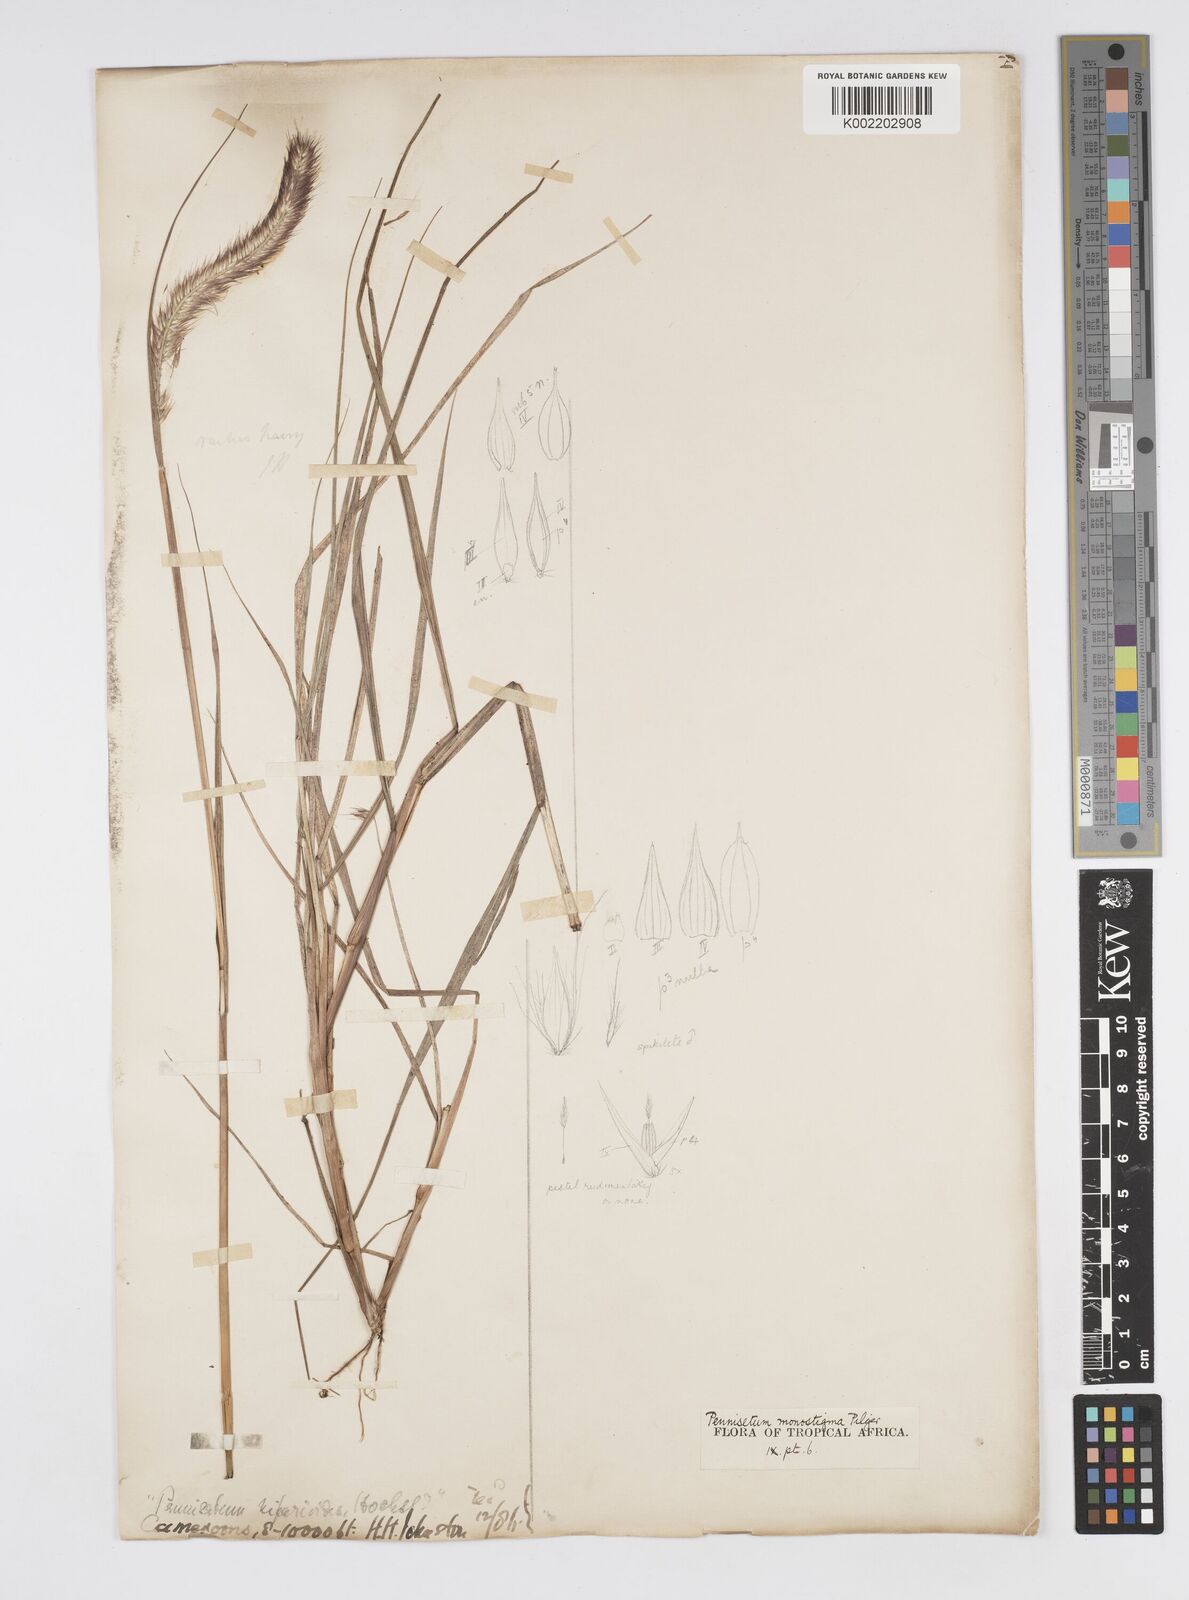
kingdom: Plantae
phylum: Tracheophyta
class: Liliopsida
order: Poales
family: Poaceae
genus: Cenchrus
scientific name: Cenchrus monostigma
